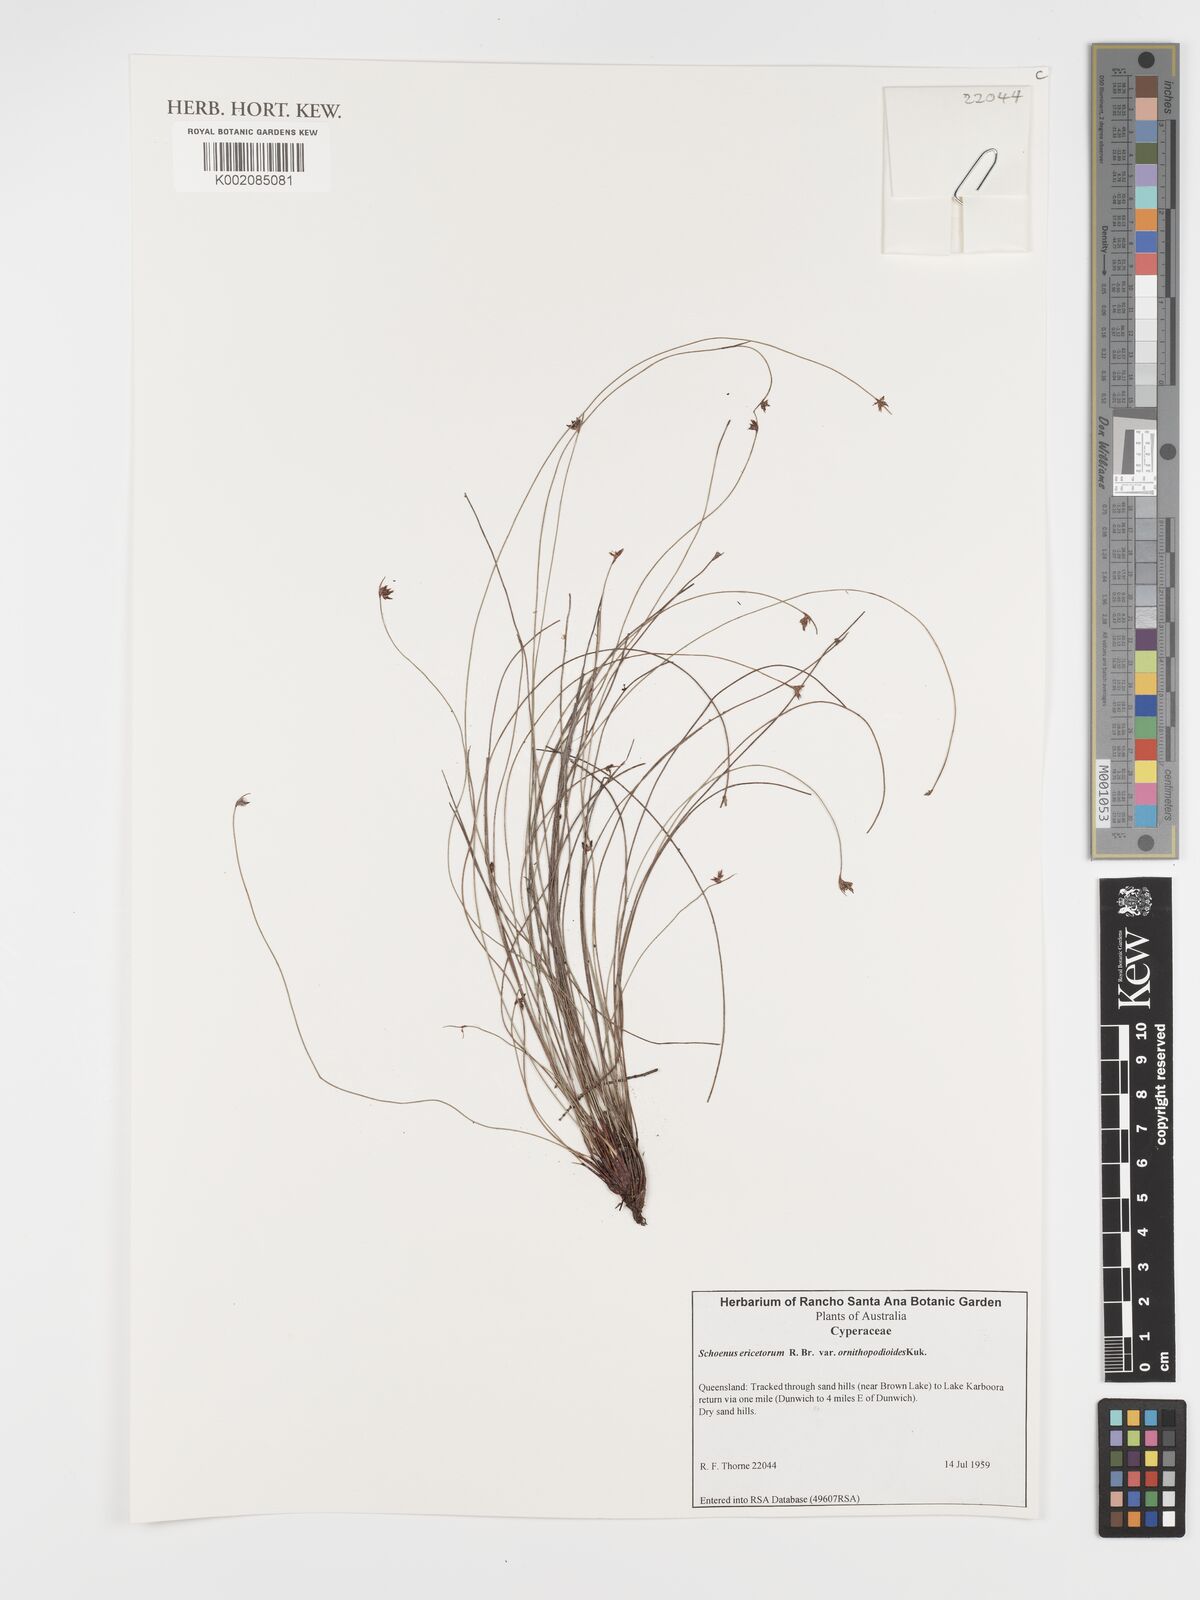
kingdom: Plantae
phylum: Tracheophyta
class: Liliopsida
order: Poales
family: Cyperaceae
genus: Schoenus
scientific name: Schoenus ornithopodioides
